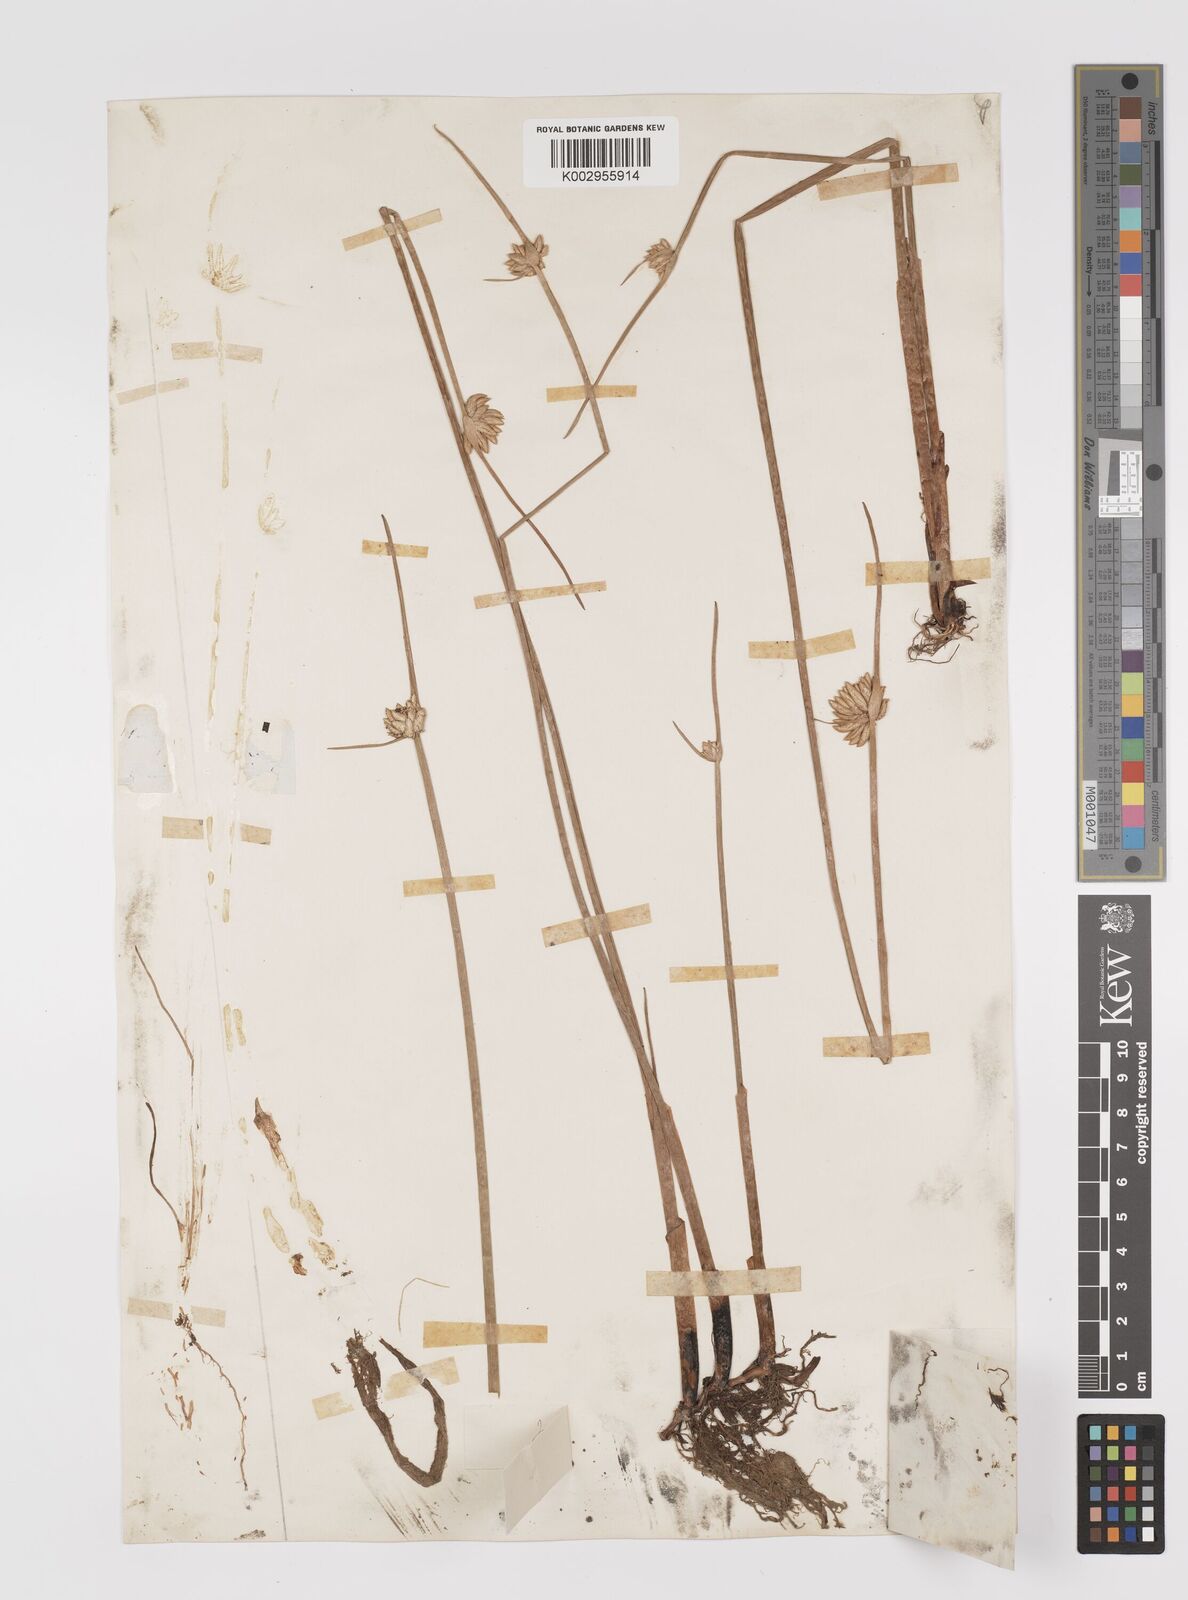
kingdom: Plantae
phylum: Tracheophyta
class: Liliopsida
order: Poales
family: Cyperaceae
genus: Cyperus
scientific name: Cyperus laevigatus
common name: Smooth flat sedge
